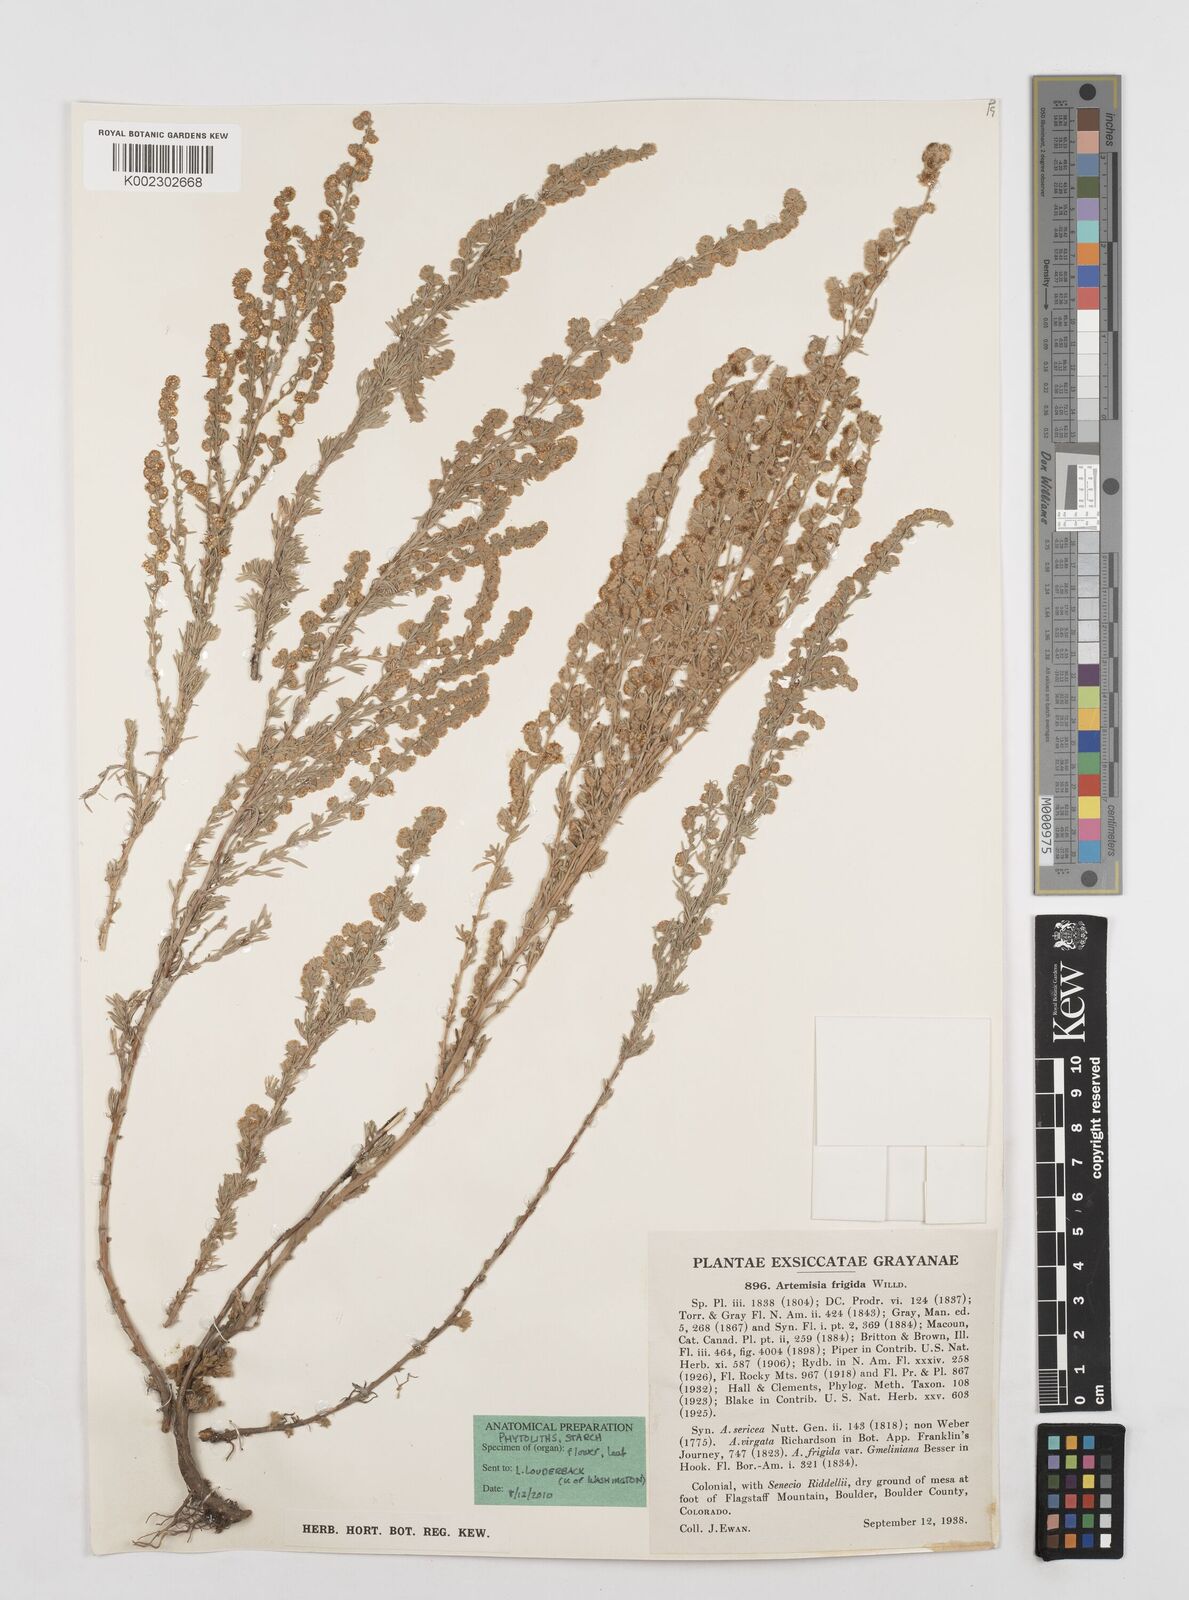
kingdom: Plantae
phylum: Tracheophyta
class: Magnoliopsida
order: Asterales
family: Asteraceae
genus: Artemisia
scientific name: Artemisia frigida
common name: Prairie sagewort
